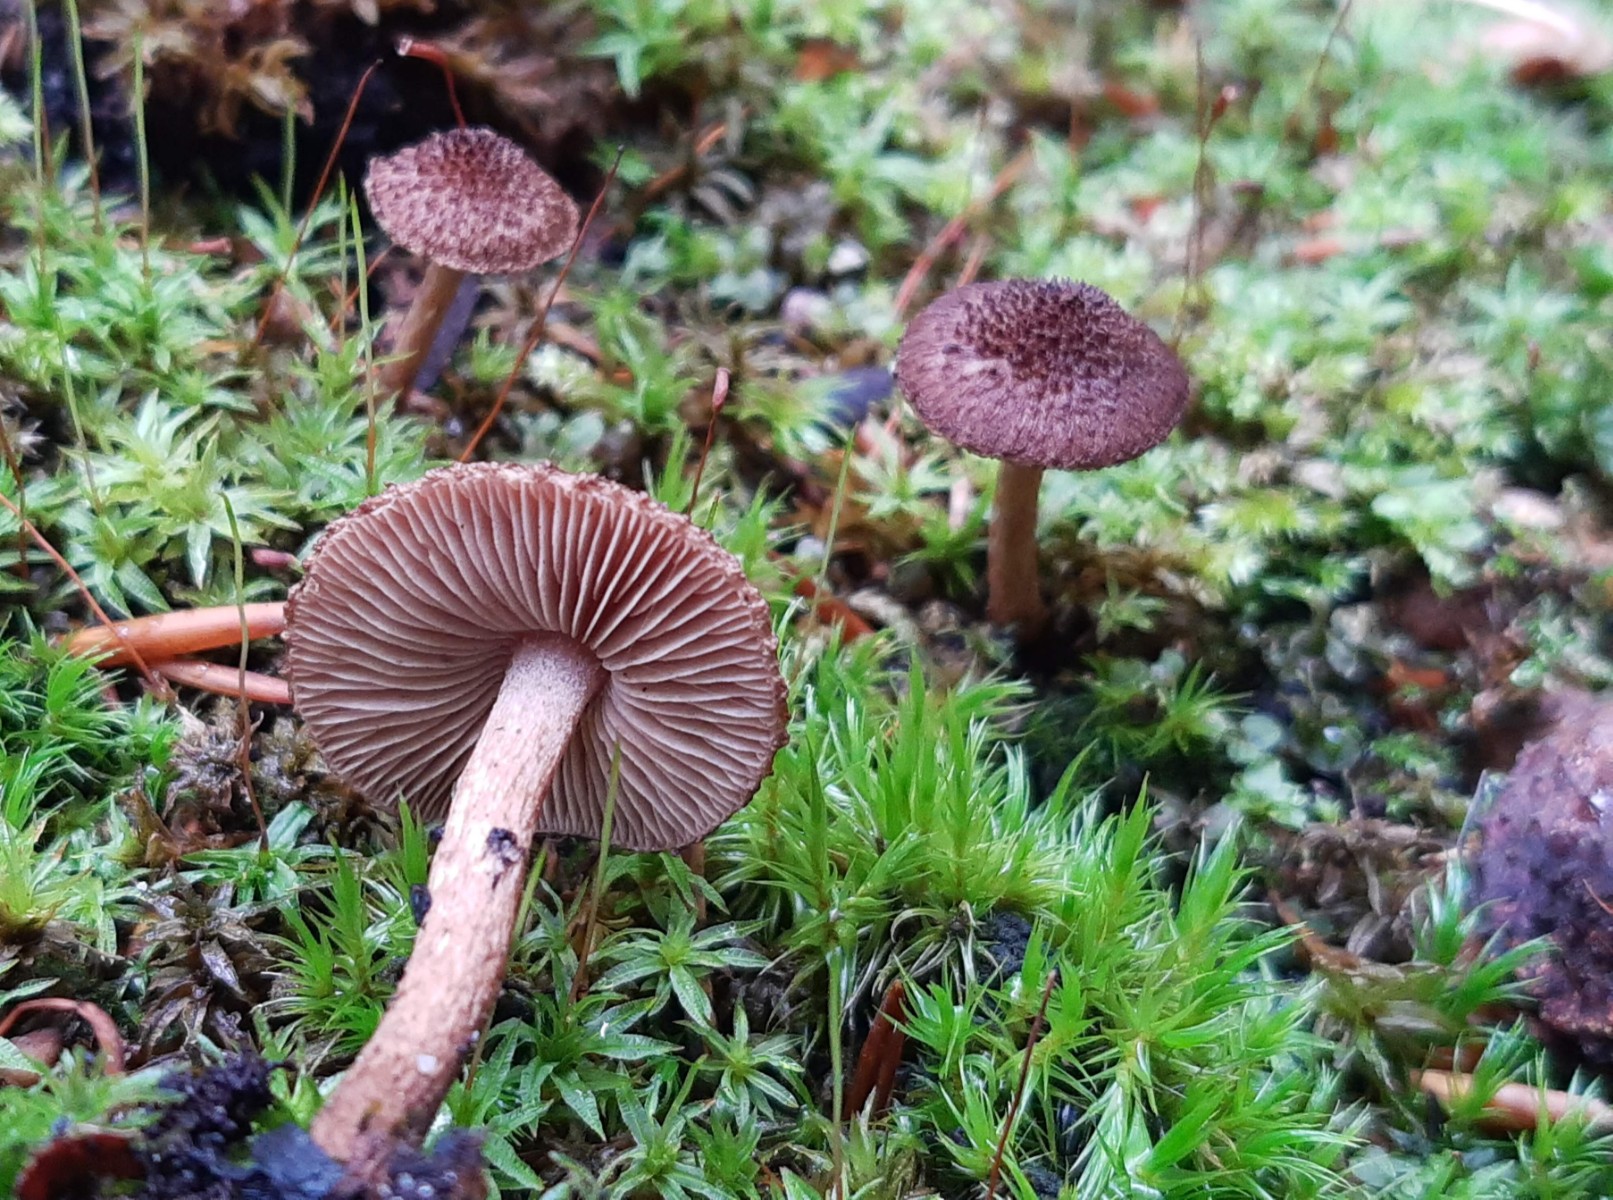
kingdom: Fungi
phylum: Basidiomycota
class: Agaricomycetes
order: Agaricales
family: Inocybaceae
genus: Inocybe
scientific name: Inocybe lanuginosa
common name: uldskællet trævlhat
